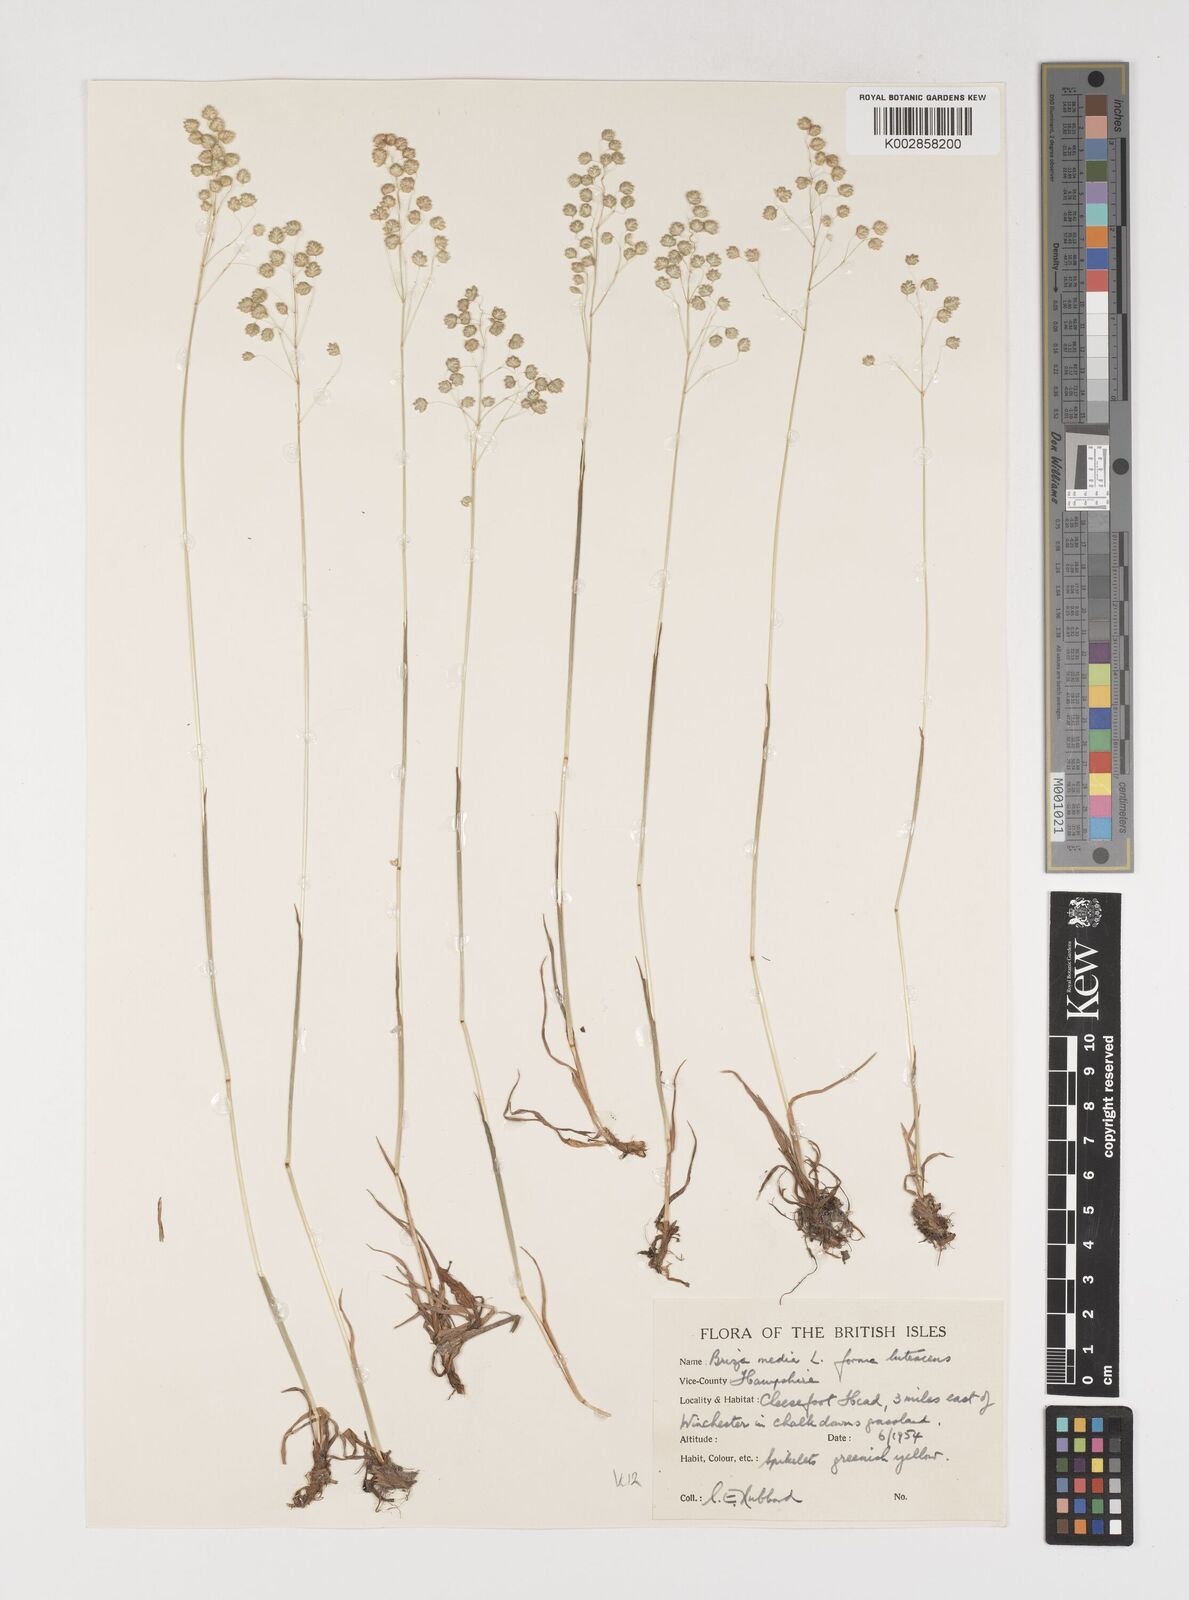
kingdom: Plantae
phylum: Tracheophyta
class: Liliopsida
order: Poales
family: Poaceae
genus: Briza
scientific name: Briza media
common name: Quaking grass
